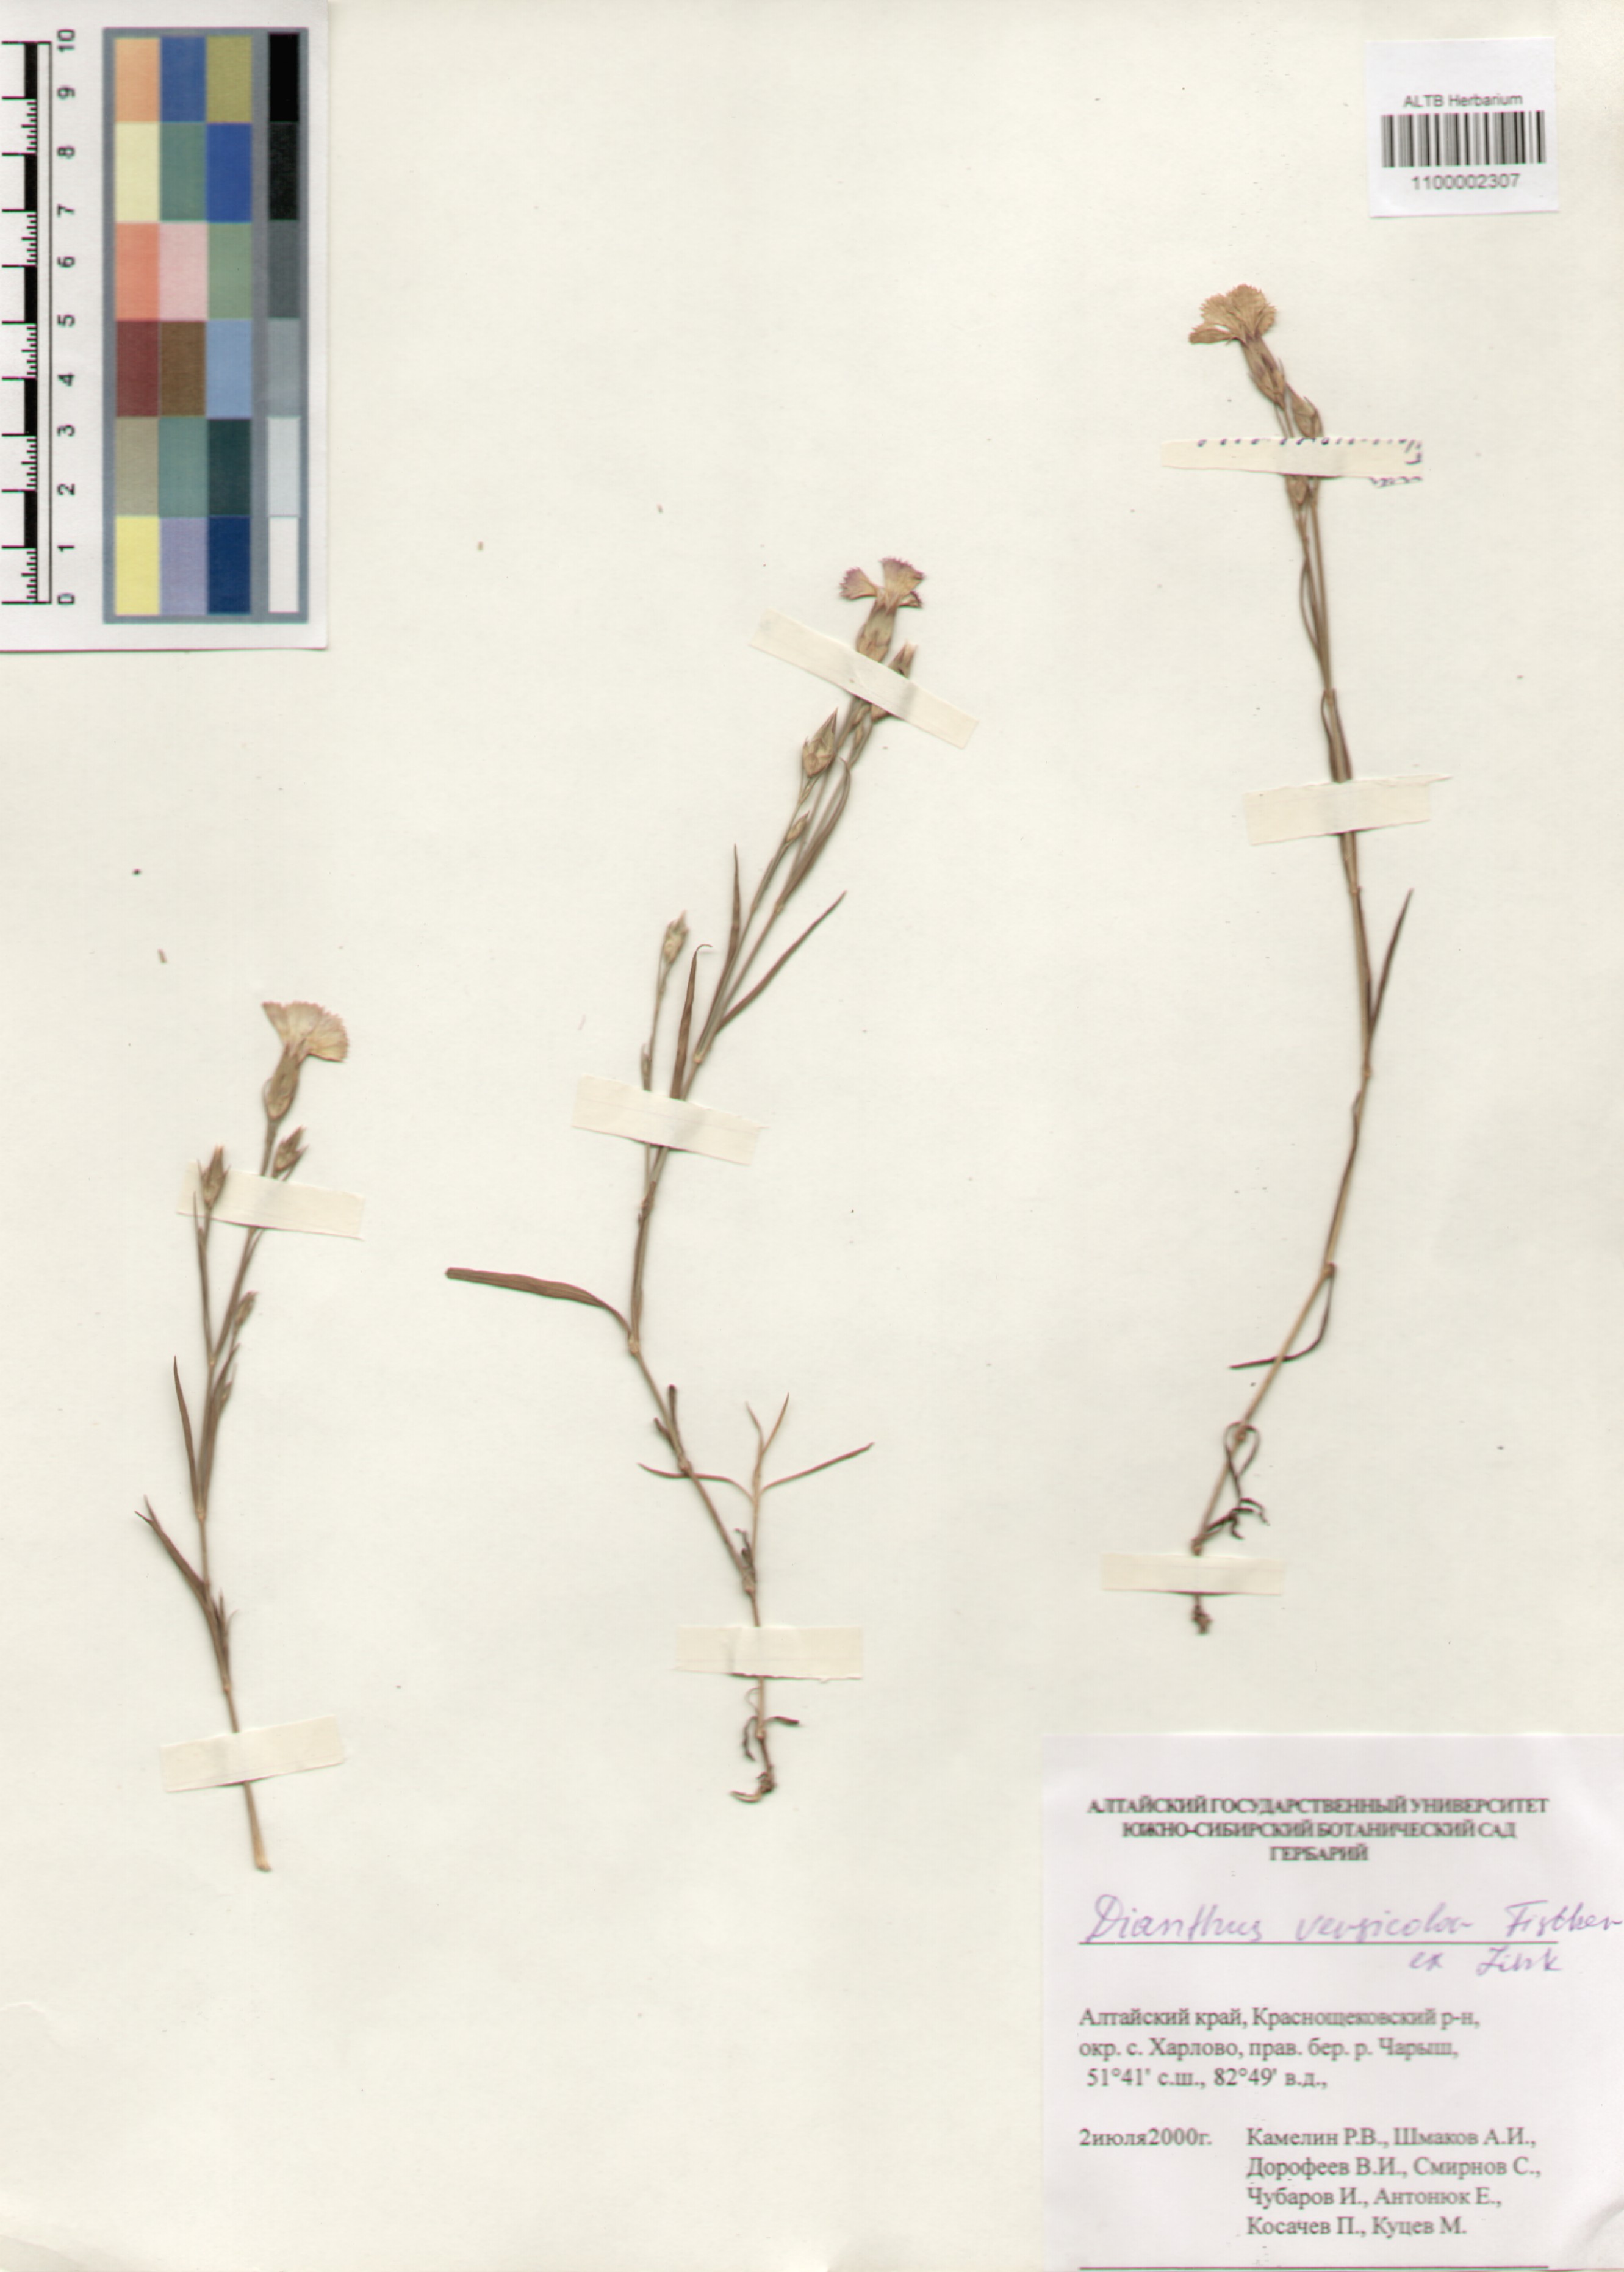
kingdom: Plantae
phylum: Tracheophyta
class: Magnoliopsida
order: Caryophyllales
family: Caryophyllaceae
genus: Dianthus
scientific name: Dianthus chinensis
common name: Rainbow pink
